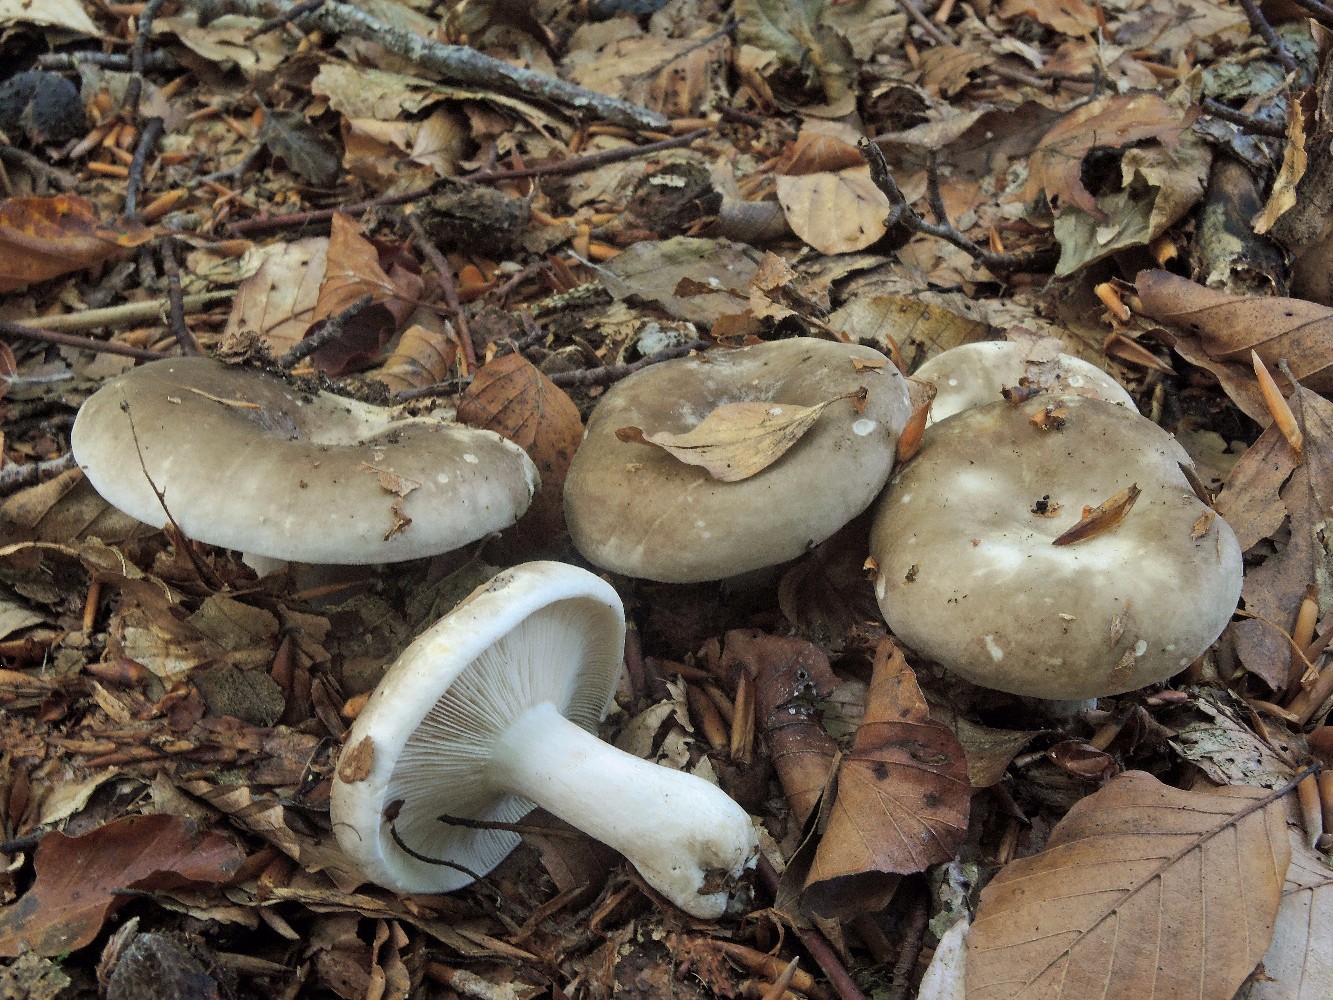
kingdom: Fungi
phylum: Basidiomycota
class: Agaricomycetes
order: Russulales
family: Russulaceae
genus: Russula
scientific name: Russula densifolia
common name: tætbladet skørhat
